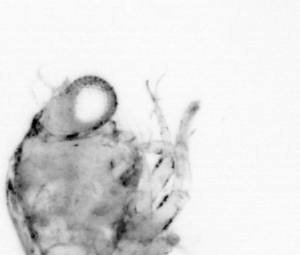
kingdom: Animalia
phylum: Arthropoda
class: Copepoda
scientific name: Copepoda
